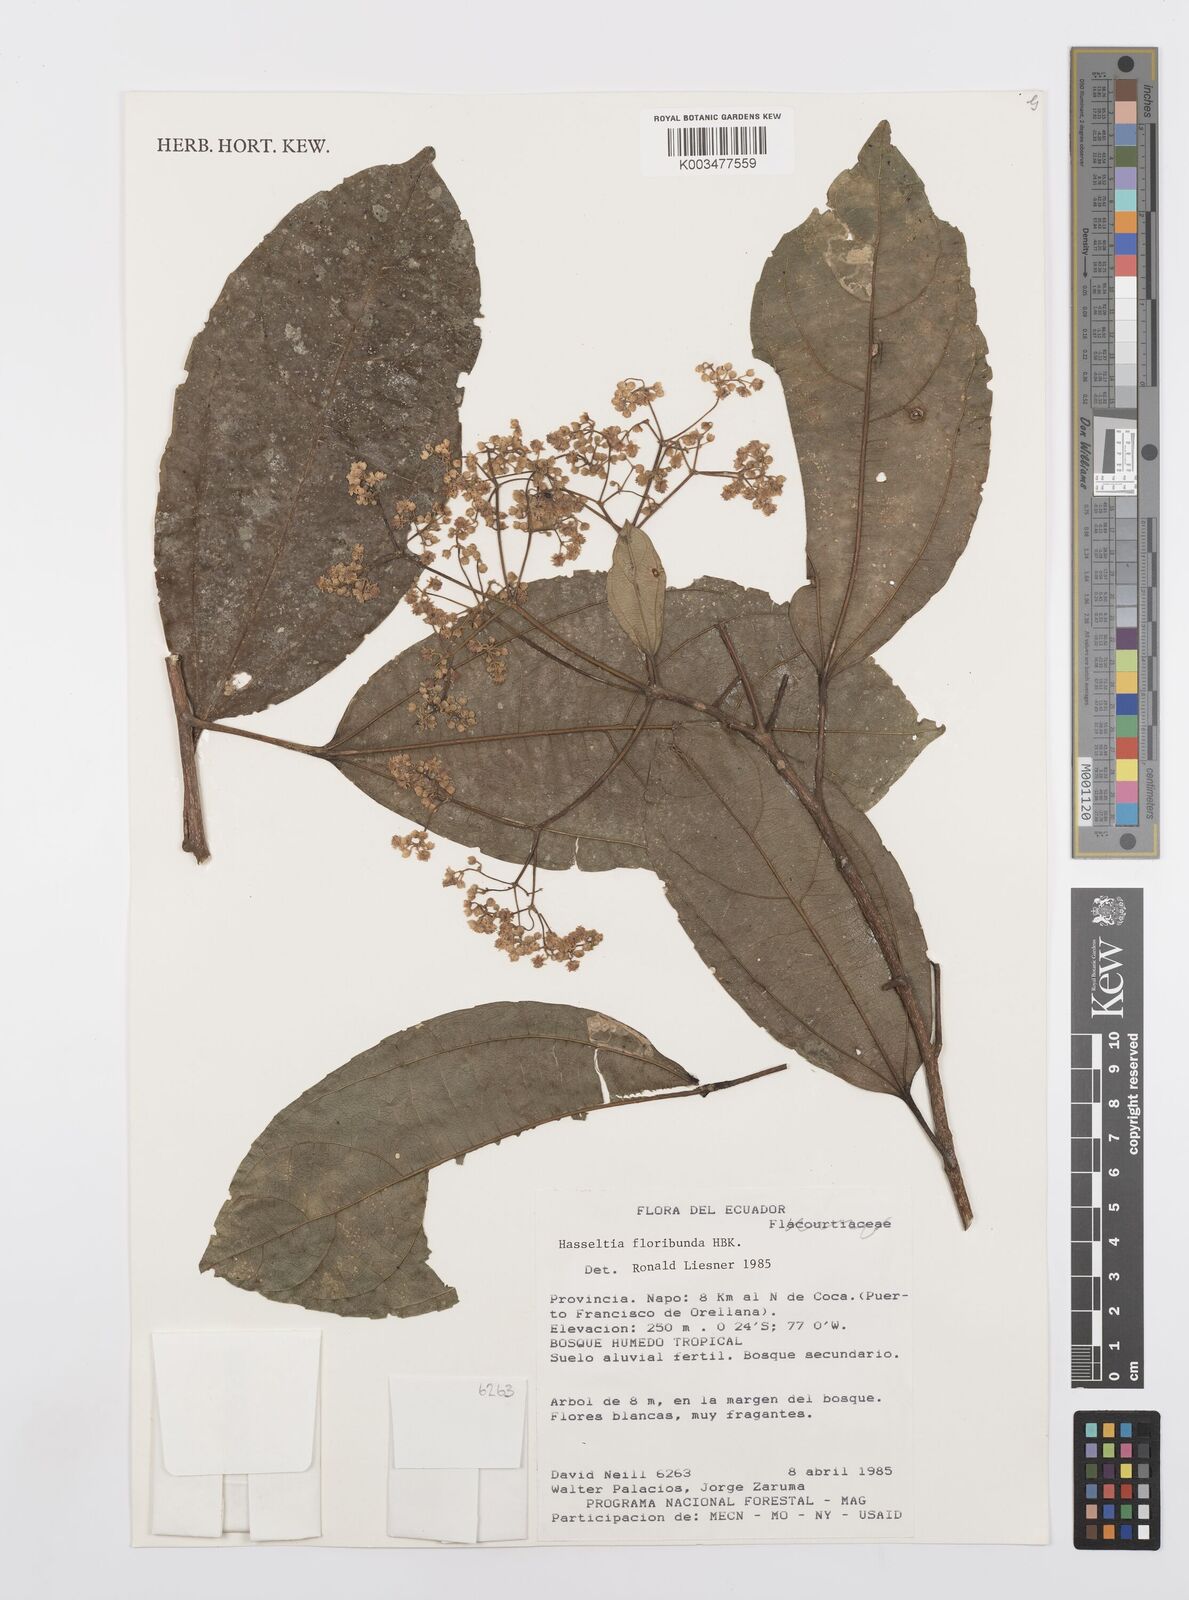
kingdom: Plantae
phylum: Tracheophyta
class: Magnoliopsida
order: Malpighiales
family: Salicaceae
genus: Hasseltia
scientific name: Hasseltia floribunda
